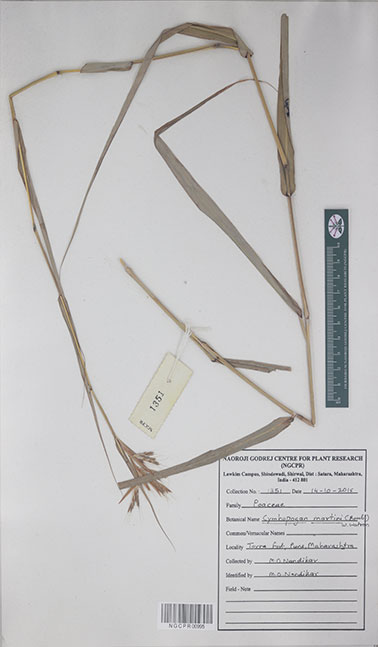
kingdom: Plantae
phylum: Tracheophyta
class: Liliopsida
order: Poales
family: Poaceae
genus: Cymbopogon
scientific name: Cymbopogon martini
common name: Ginger grass
